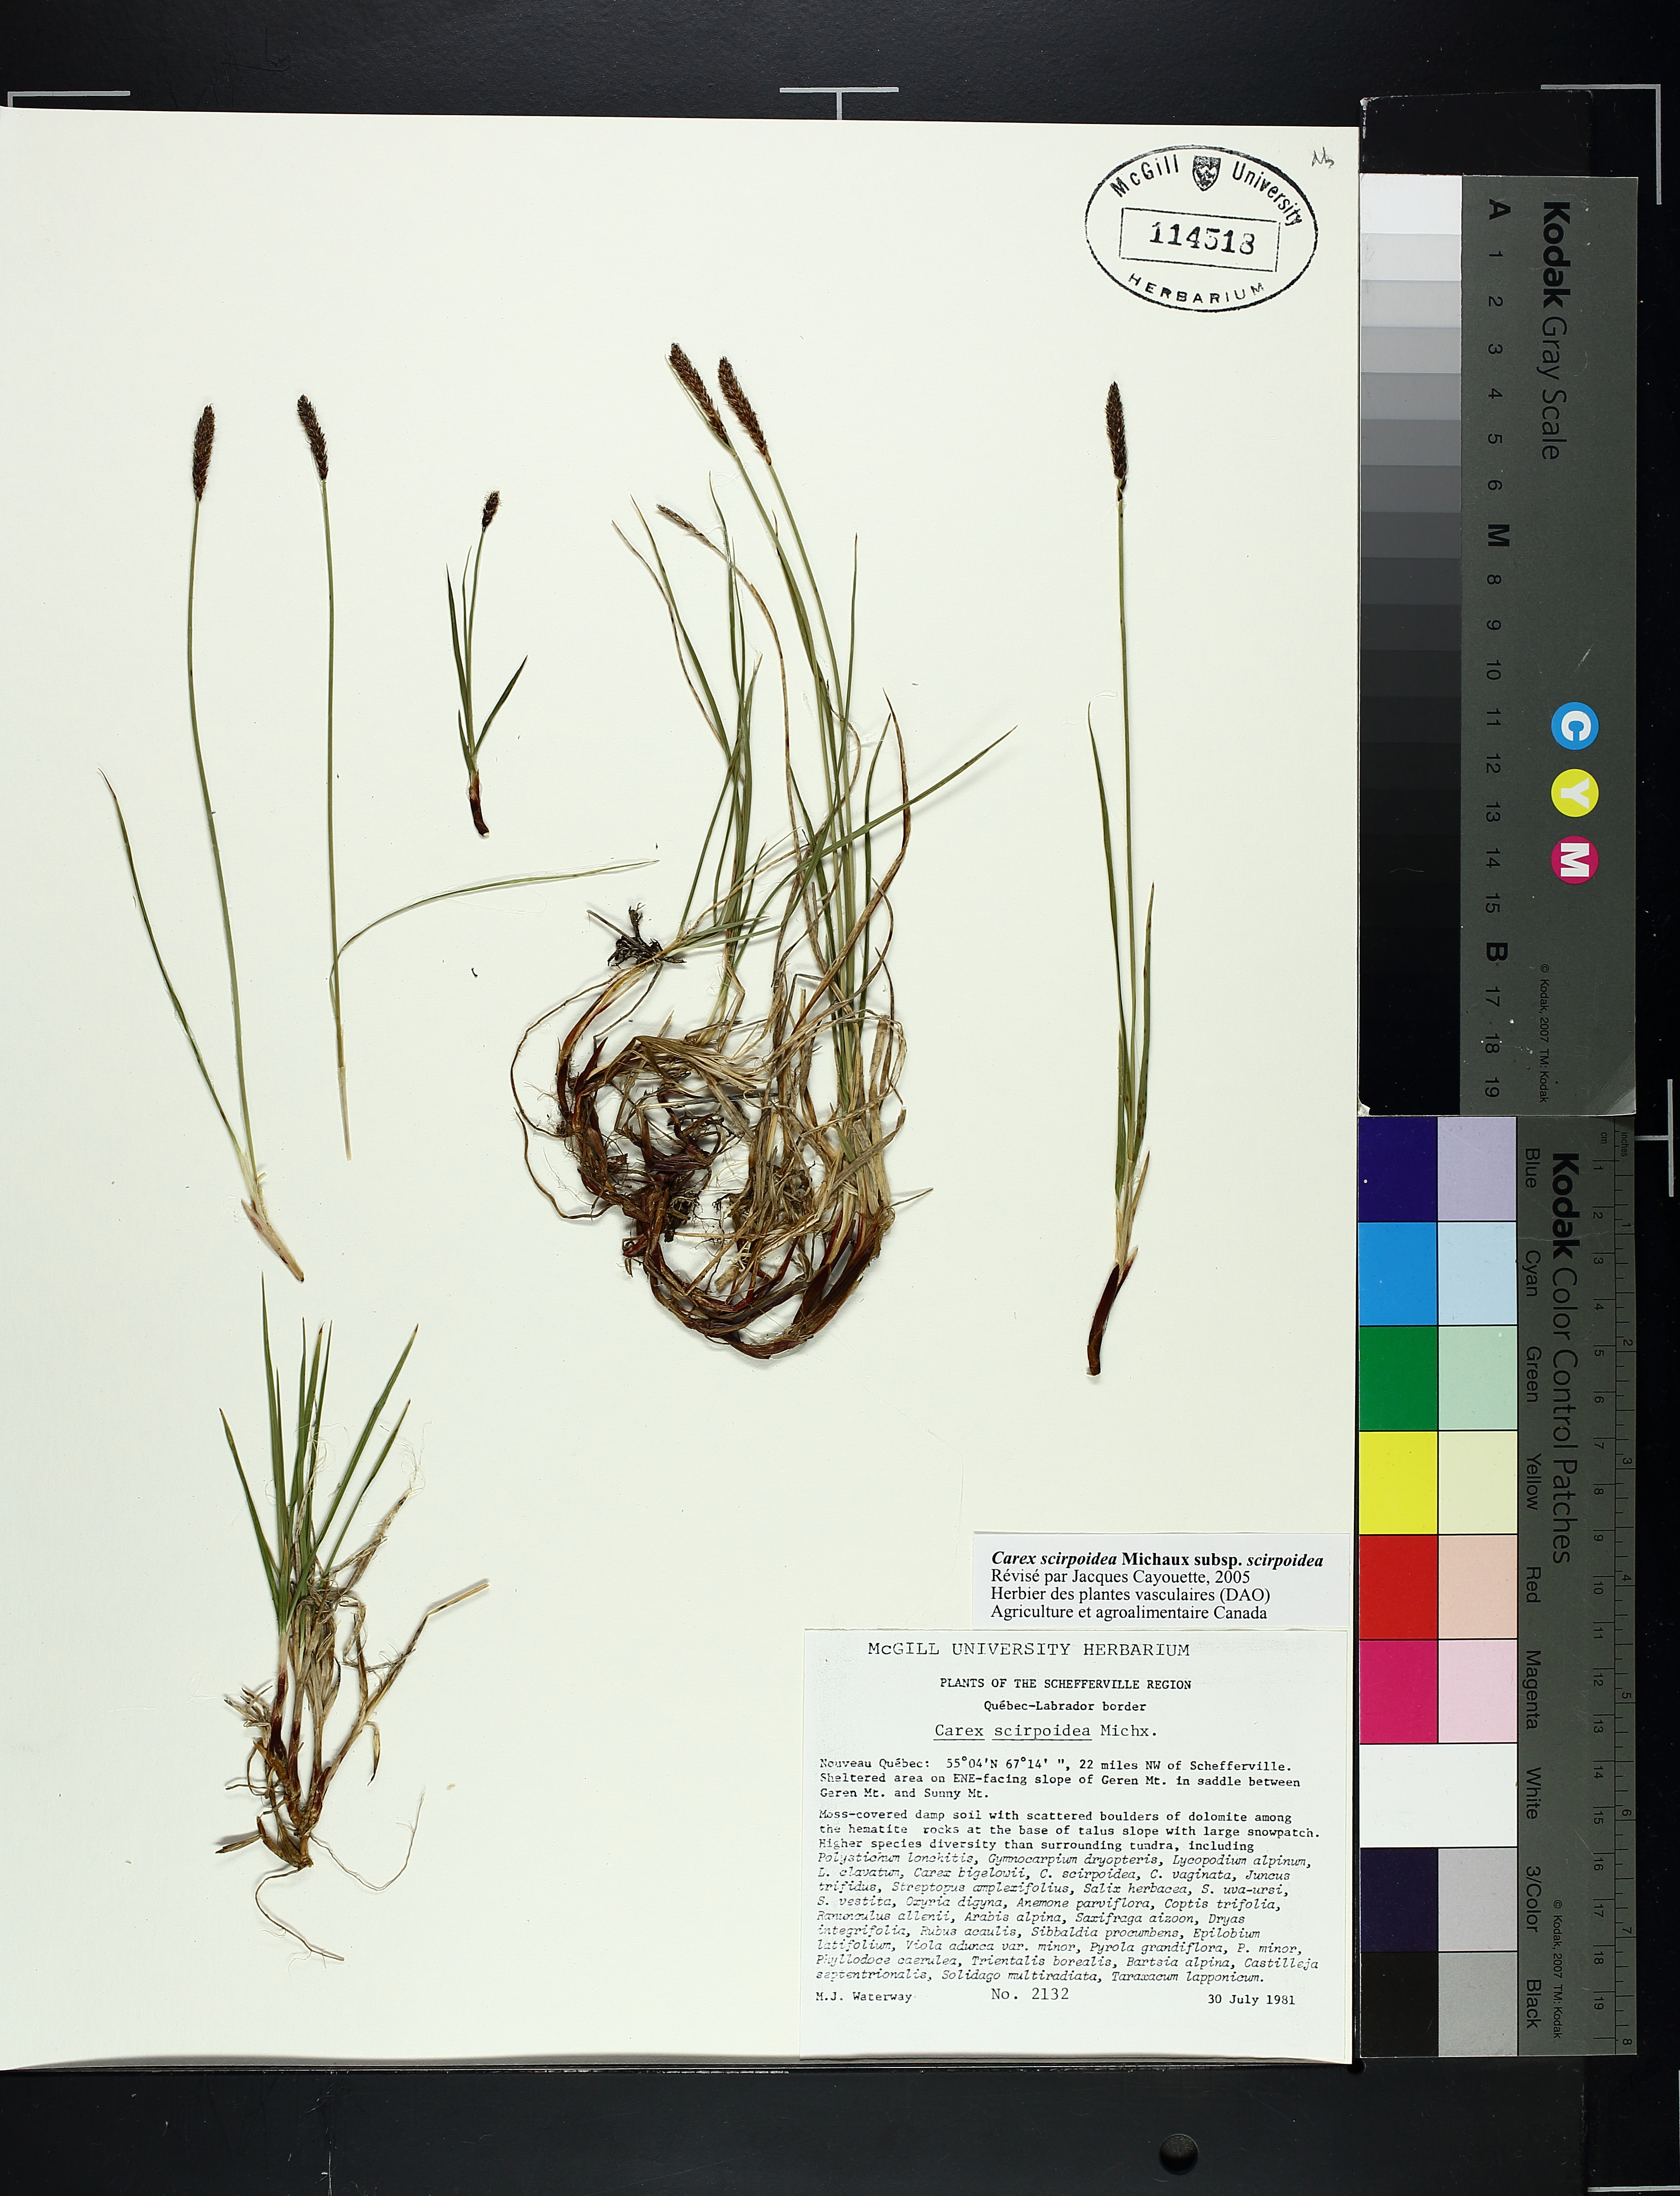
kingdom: Plantae
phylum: Tracheophyta
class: Liliopsida
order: Poales
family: Cyperaceae
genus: Carex
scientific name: Carex scirpoidea
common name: Canada single-spike sedge
